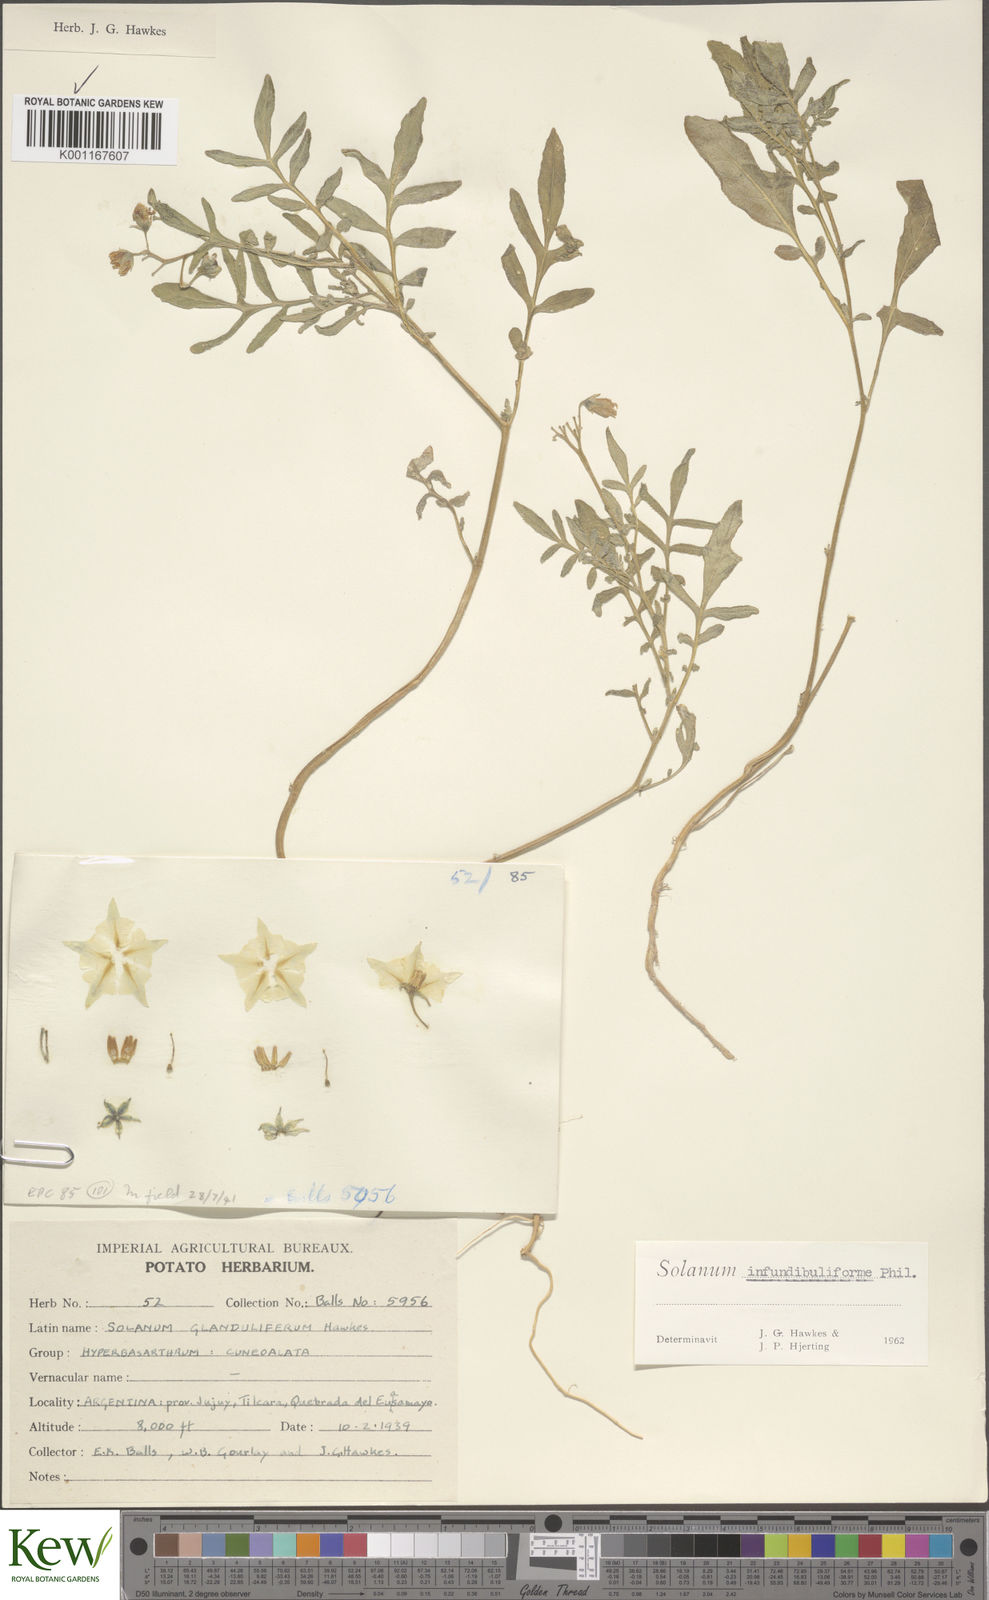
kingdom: Plantae
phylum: Tracheophyta
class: Magnoliopsida
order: Solanales
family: Solanaceae
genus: Solanum
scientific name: Solanum infundibuliforme
